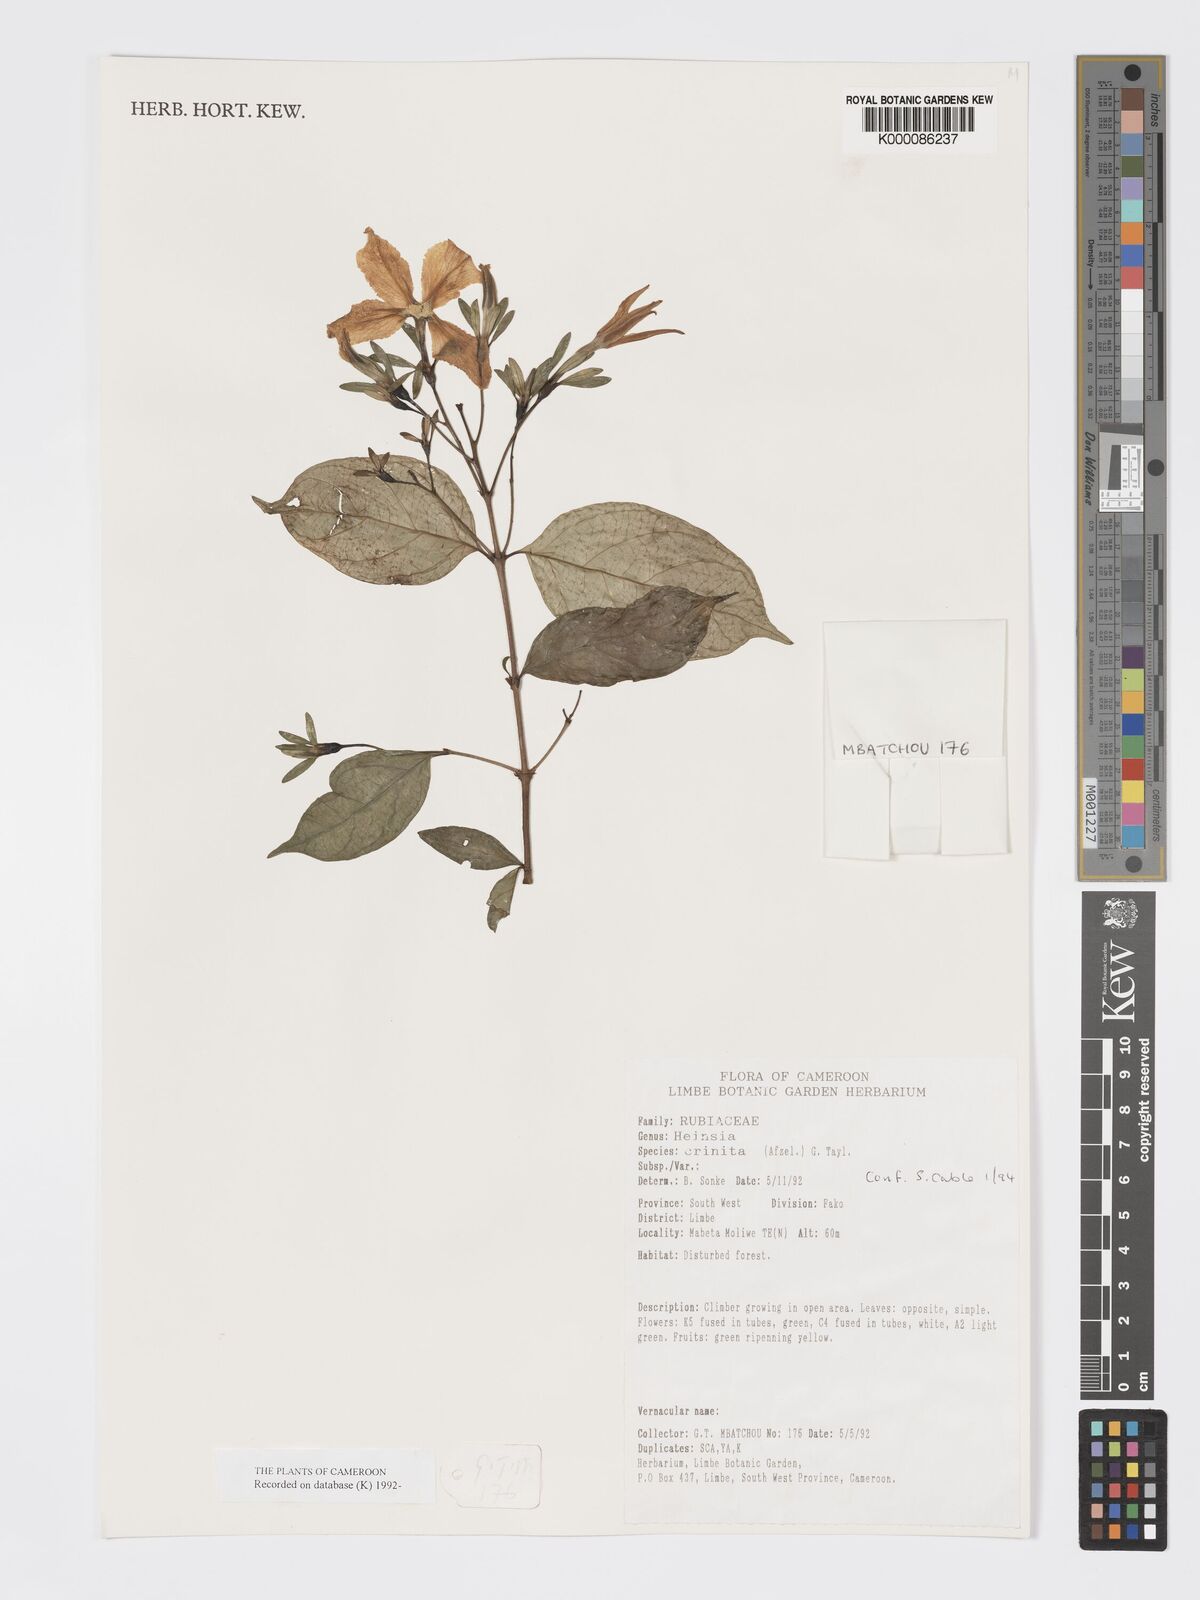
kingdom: Plantae
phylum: Tracheophyta
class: Magnoliopsida
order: Gentianales
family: Rubiaceae
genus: Heinsia
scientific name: Heinsia crinita
